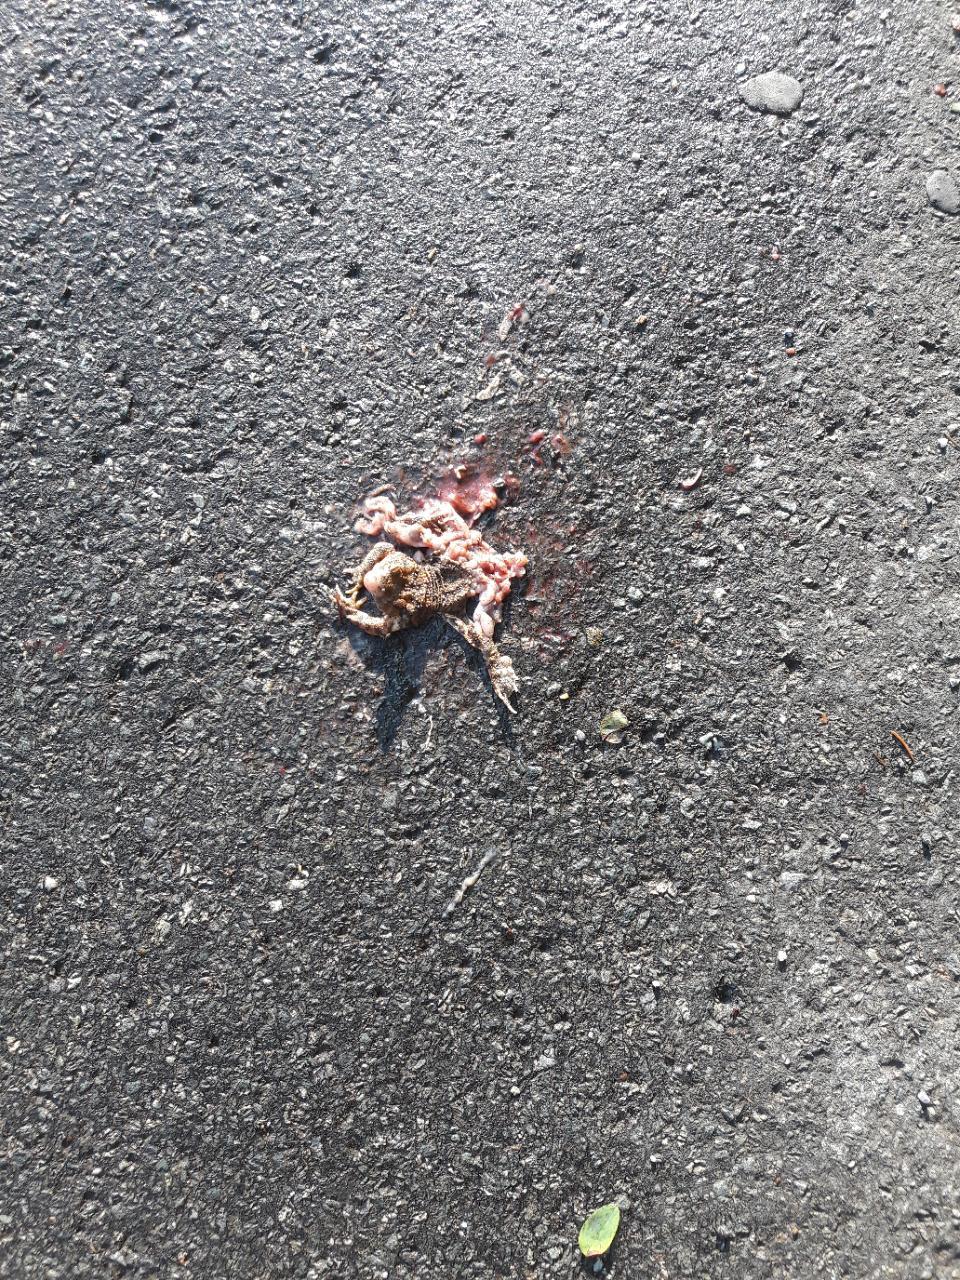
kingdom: Animalia
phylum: Chordata
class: Amphibia
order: Anura
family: Bufonidae
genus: Bufo
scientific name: Bufo bufo
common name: Common toad
